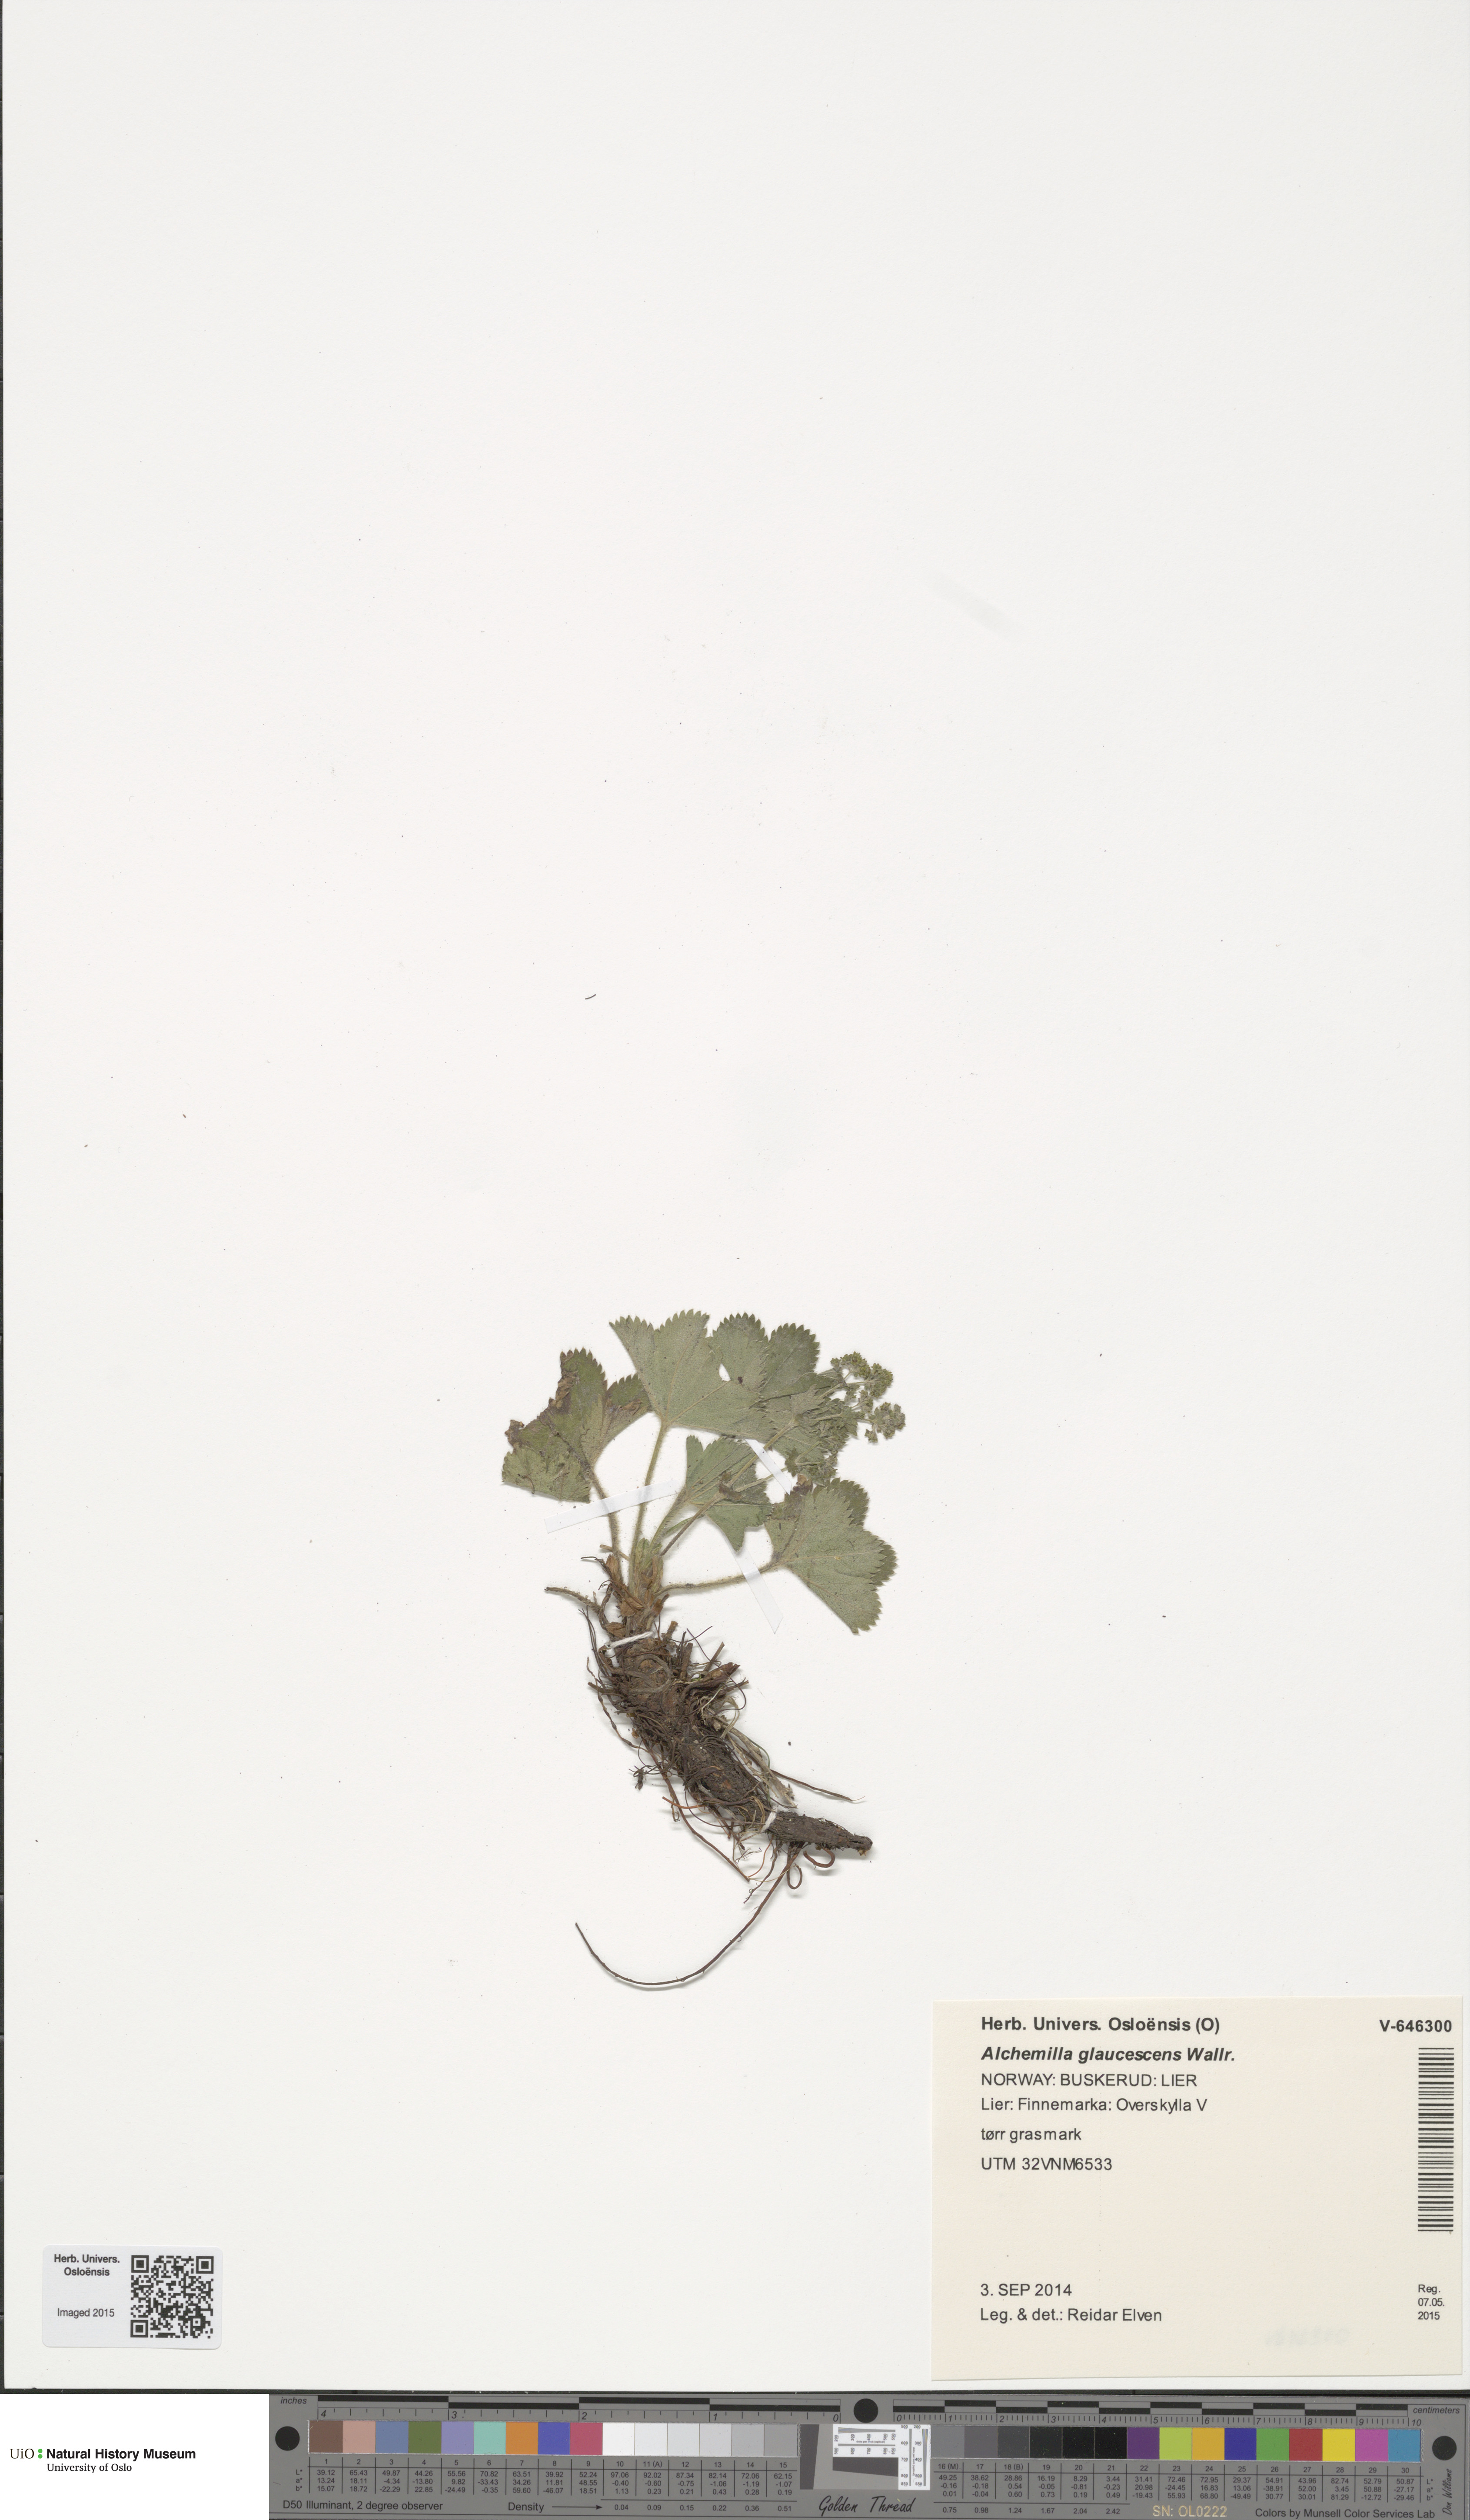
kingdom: Plantae
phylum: Tracheophyta
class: Magnoliopsida
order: Rosales
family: Rosaceae
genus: Alchemilla
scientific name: Alchemilla glaucescens
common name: Silky lady's mantle
